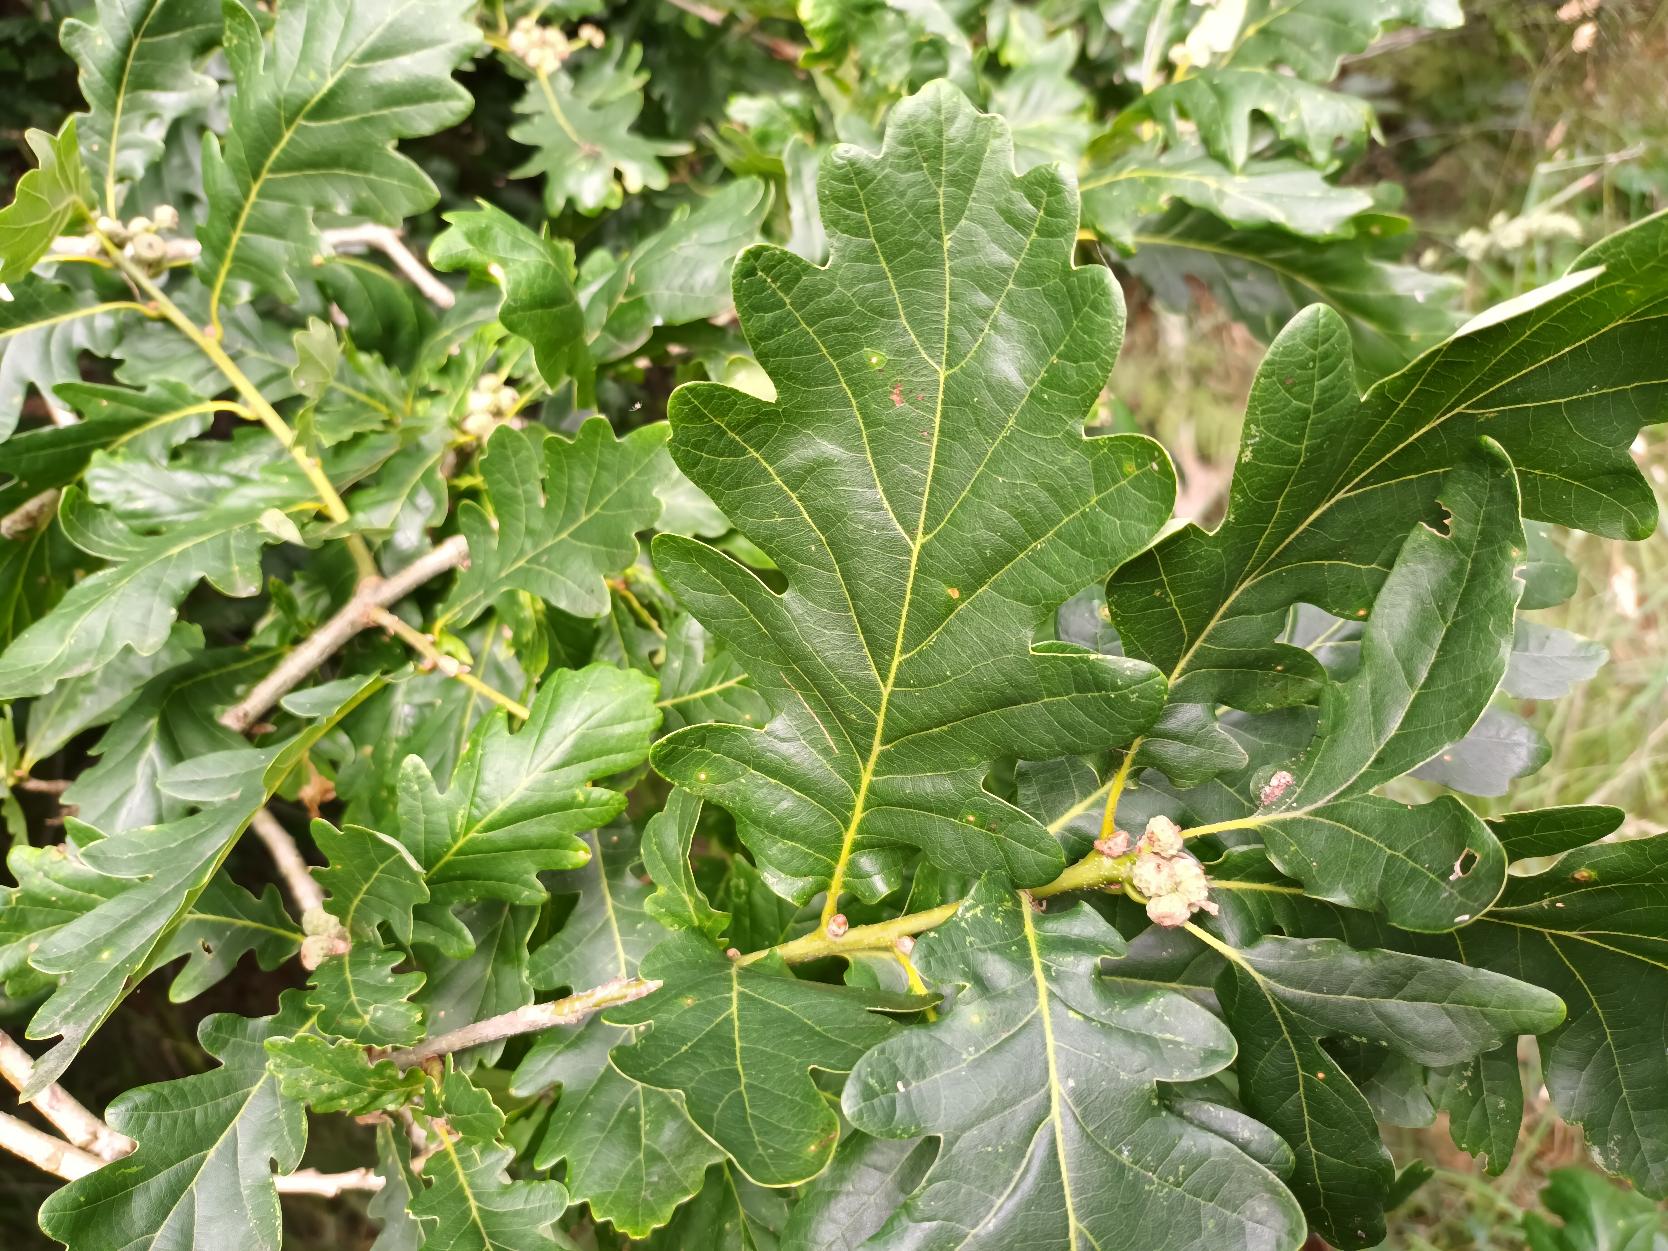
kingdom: Plantae
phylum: Tracheophyta
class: Magnoliopsida
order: Fagales
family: Fagaceae
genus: Quercus
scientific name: Quercus robur
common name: Stilk-eg/almindelig eg
